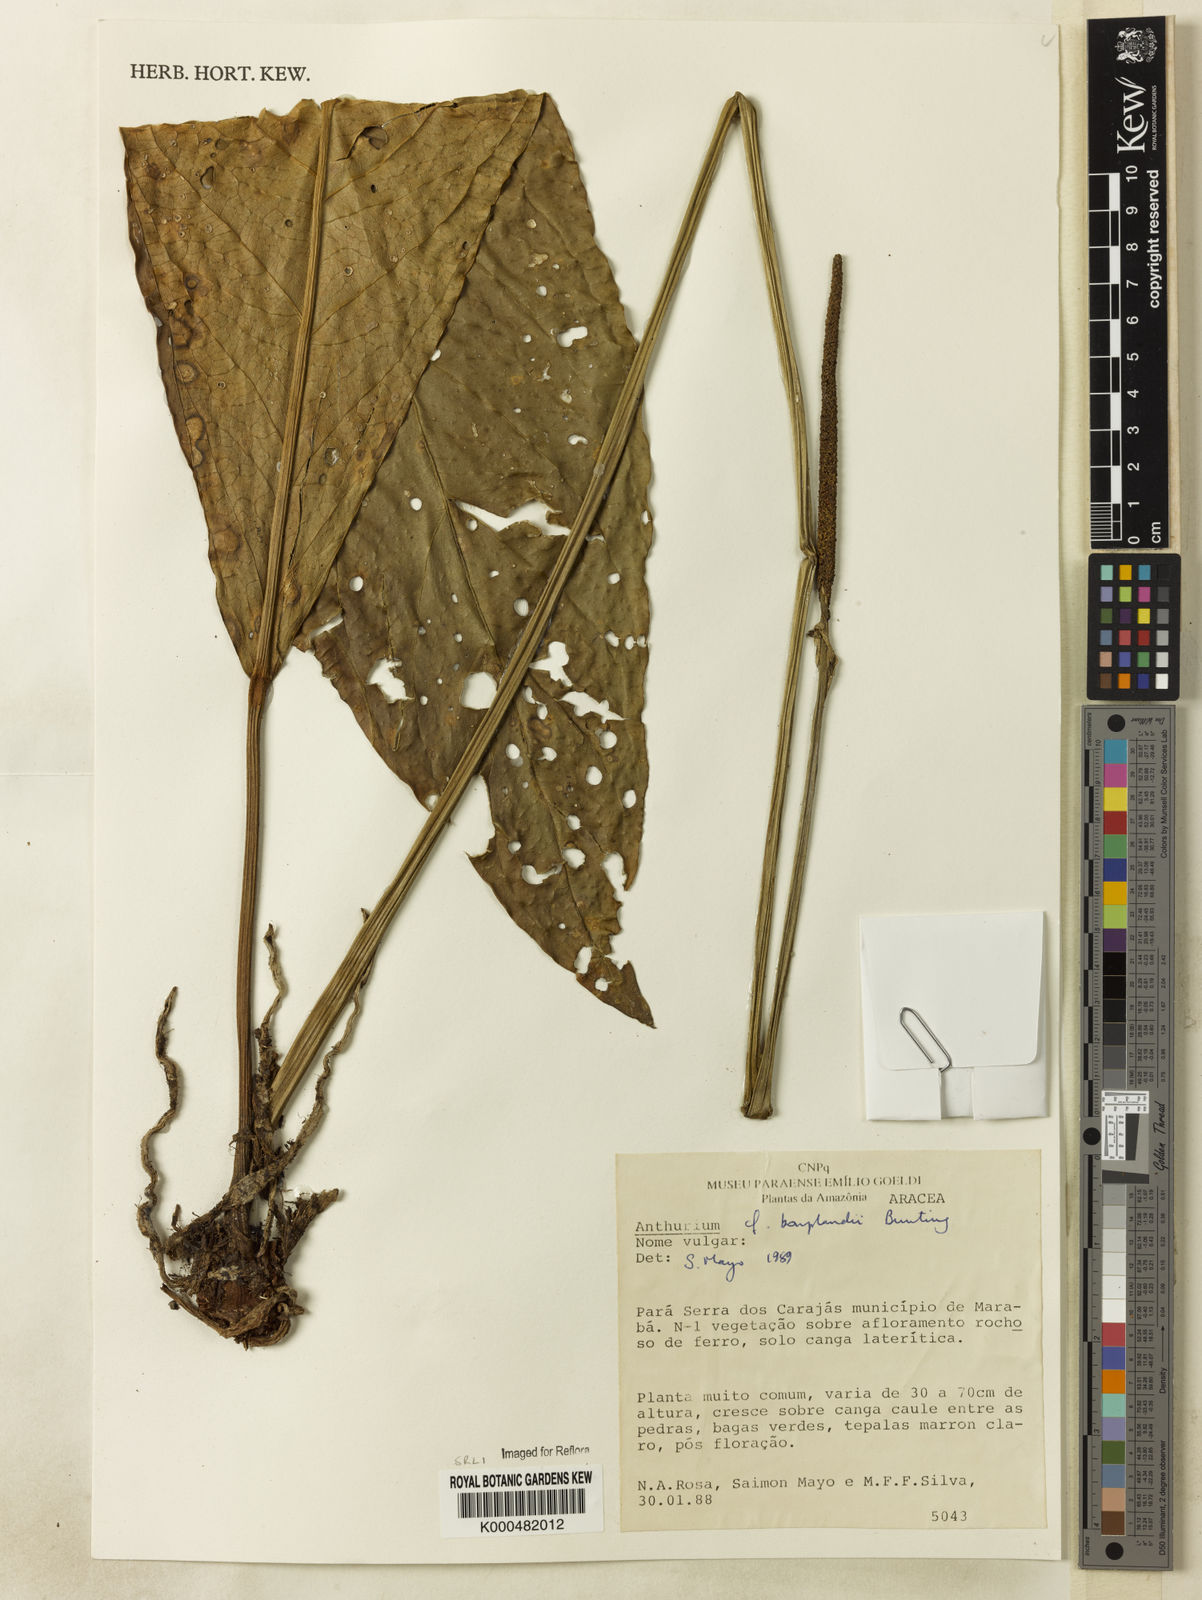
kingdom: Plantae
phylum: Tracheophyta
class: Liliopsida
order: Alismatales
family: Araceae
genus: Anthurium
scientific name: Anthurium bonplandii
